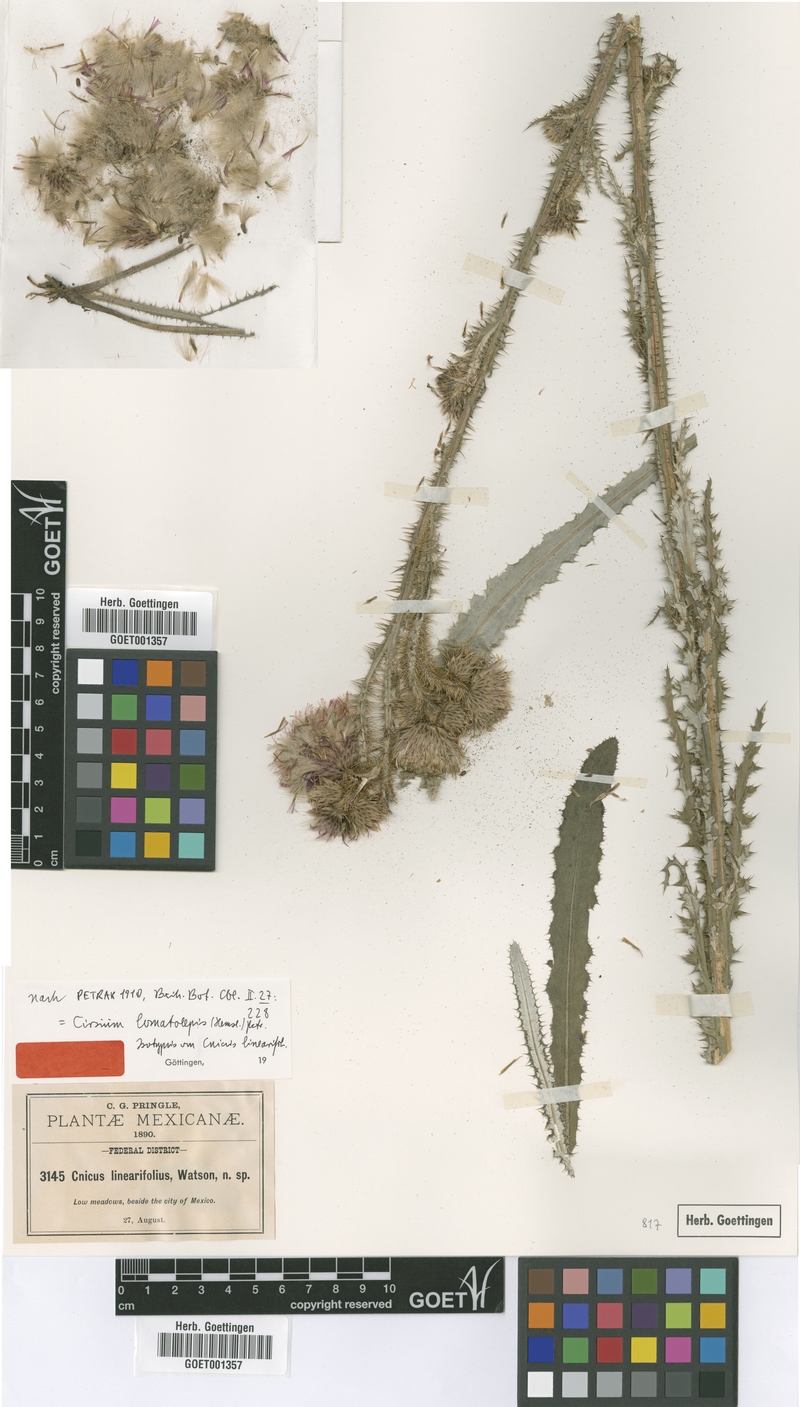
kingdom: Plantae
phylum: Tracheophyta
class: Magnoliopsida
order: Asterales
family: Asteraceae
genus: Cirsium
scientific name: Cirsium lomatolepis
